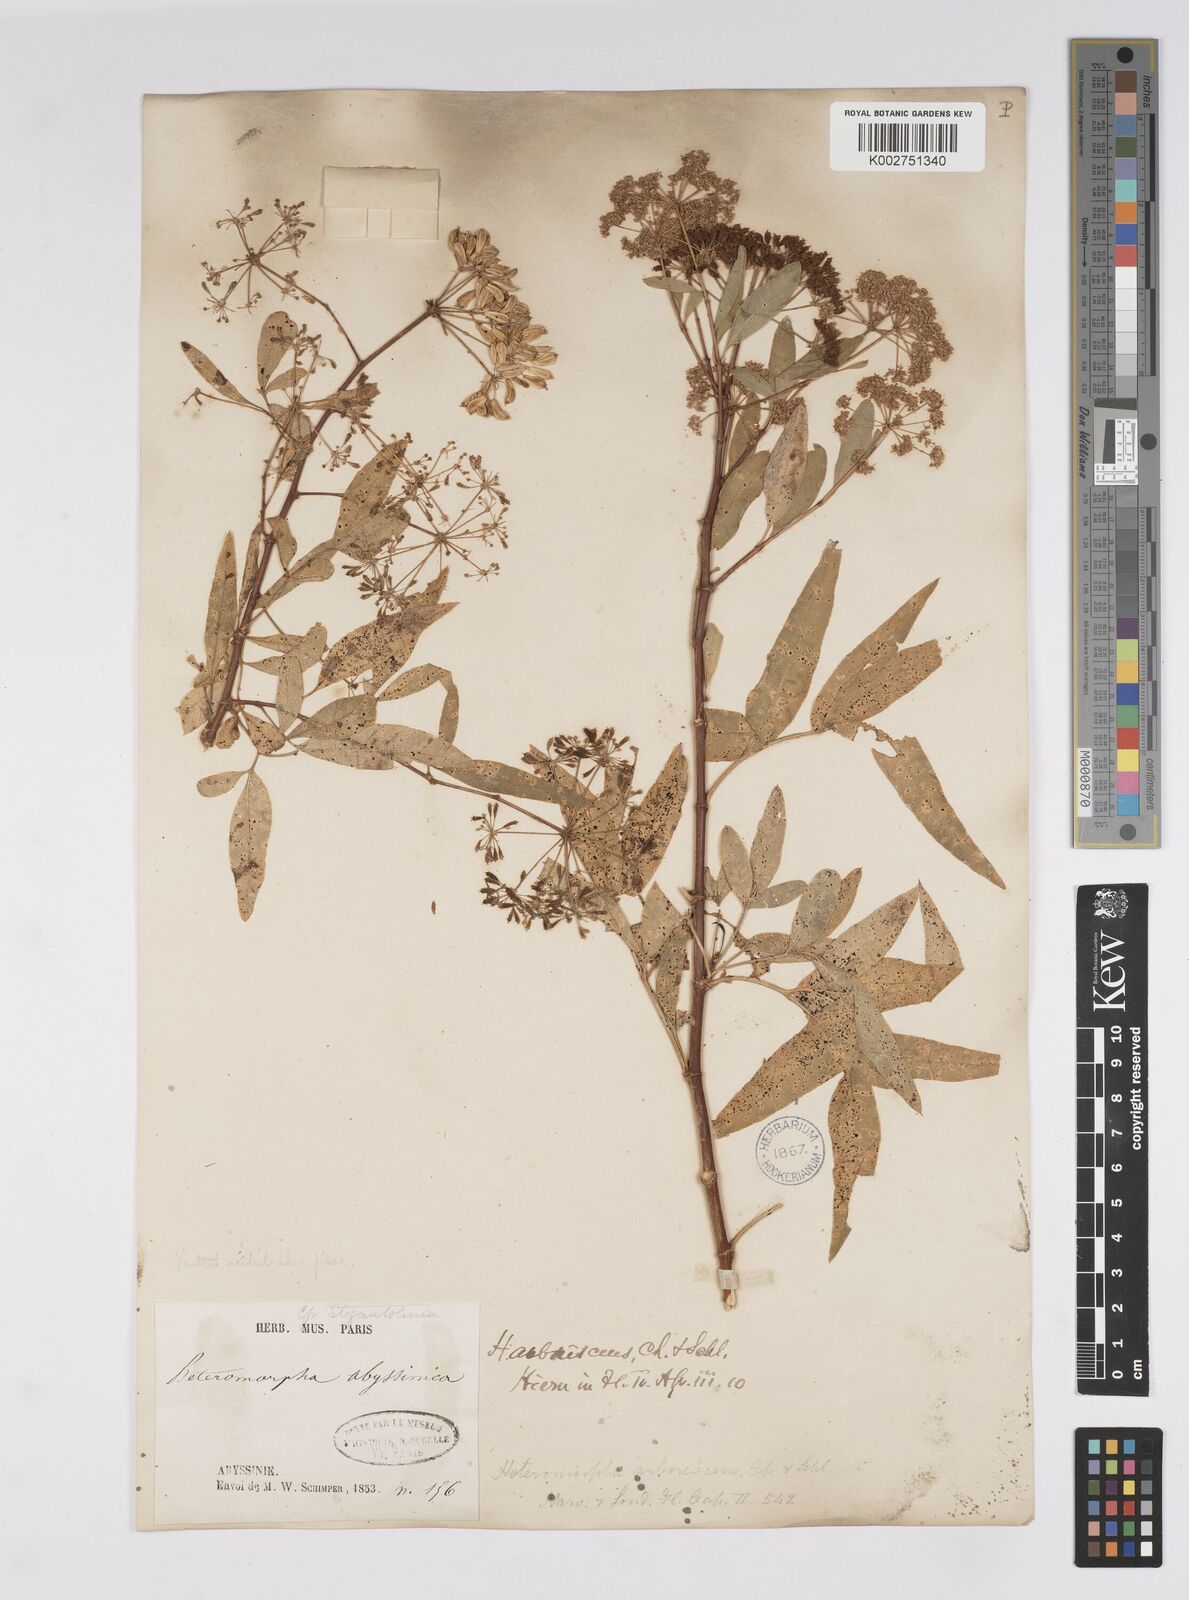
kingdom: Plantae
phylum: Tracheophyta
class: Magnoliopsida
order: Apiales
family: Apiaceae
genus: Heteromorpha
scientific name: Heteromorpha
